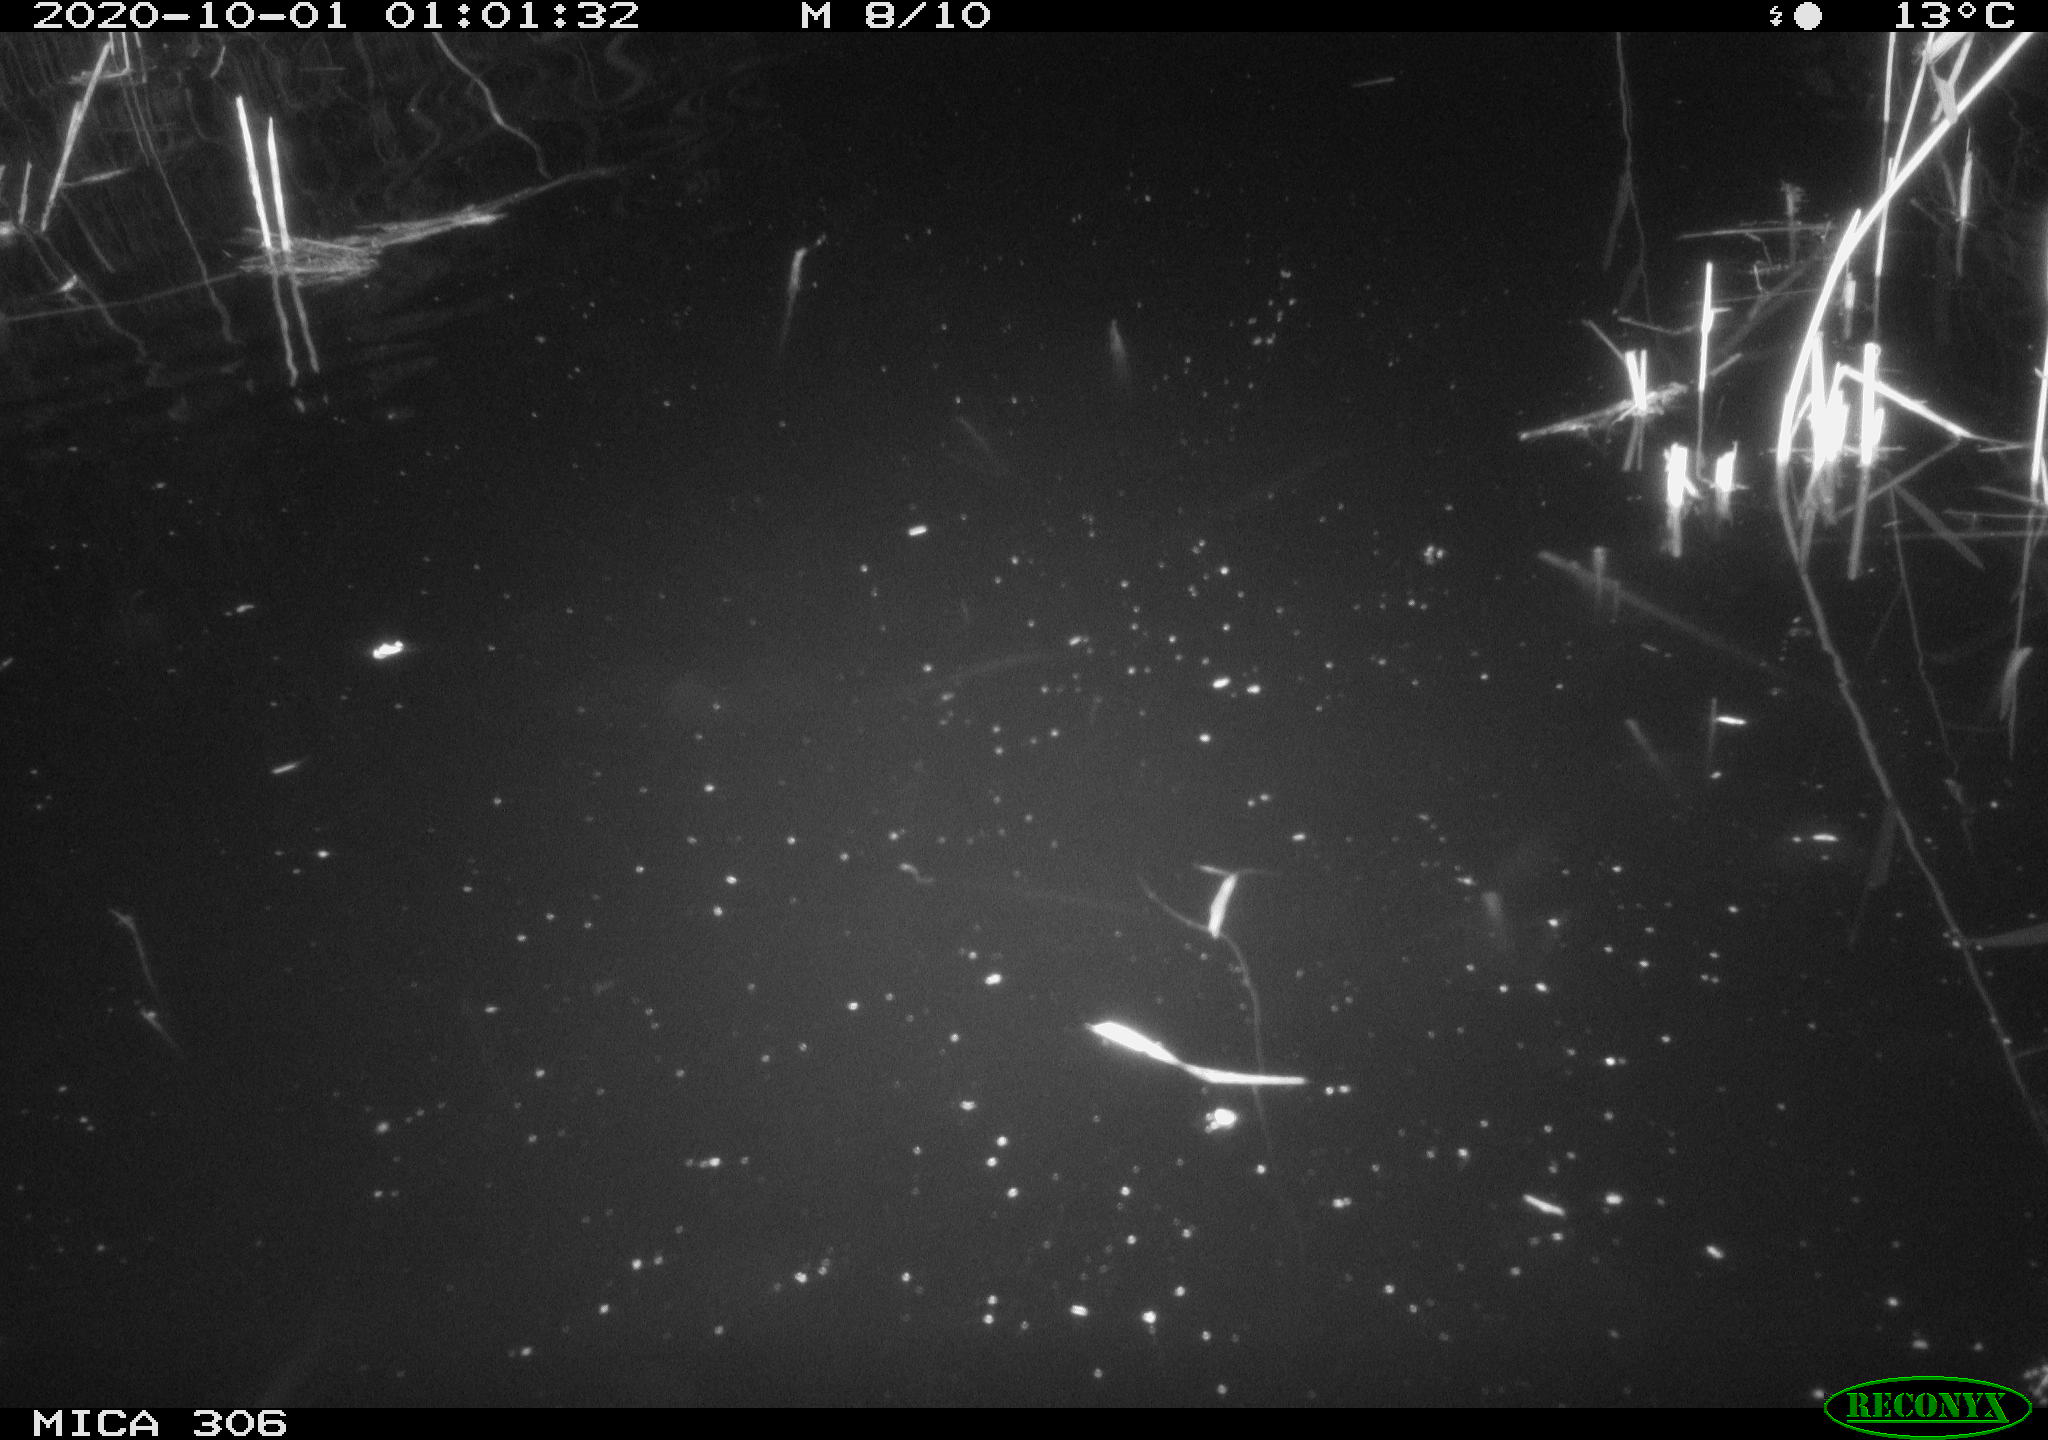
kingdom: Animalia
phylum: Chordata
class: Mammalia
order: Rodentia
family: Muridae
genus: Rattus
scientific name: Rattus norvegicus
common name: Brown rat
